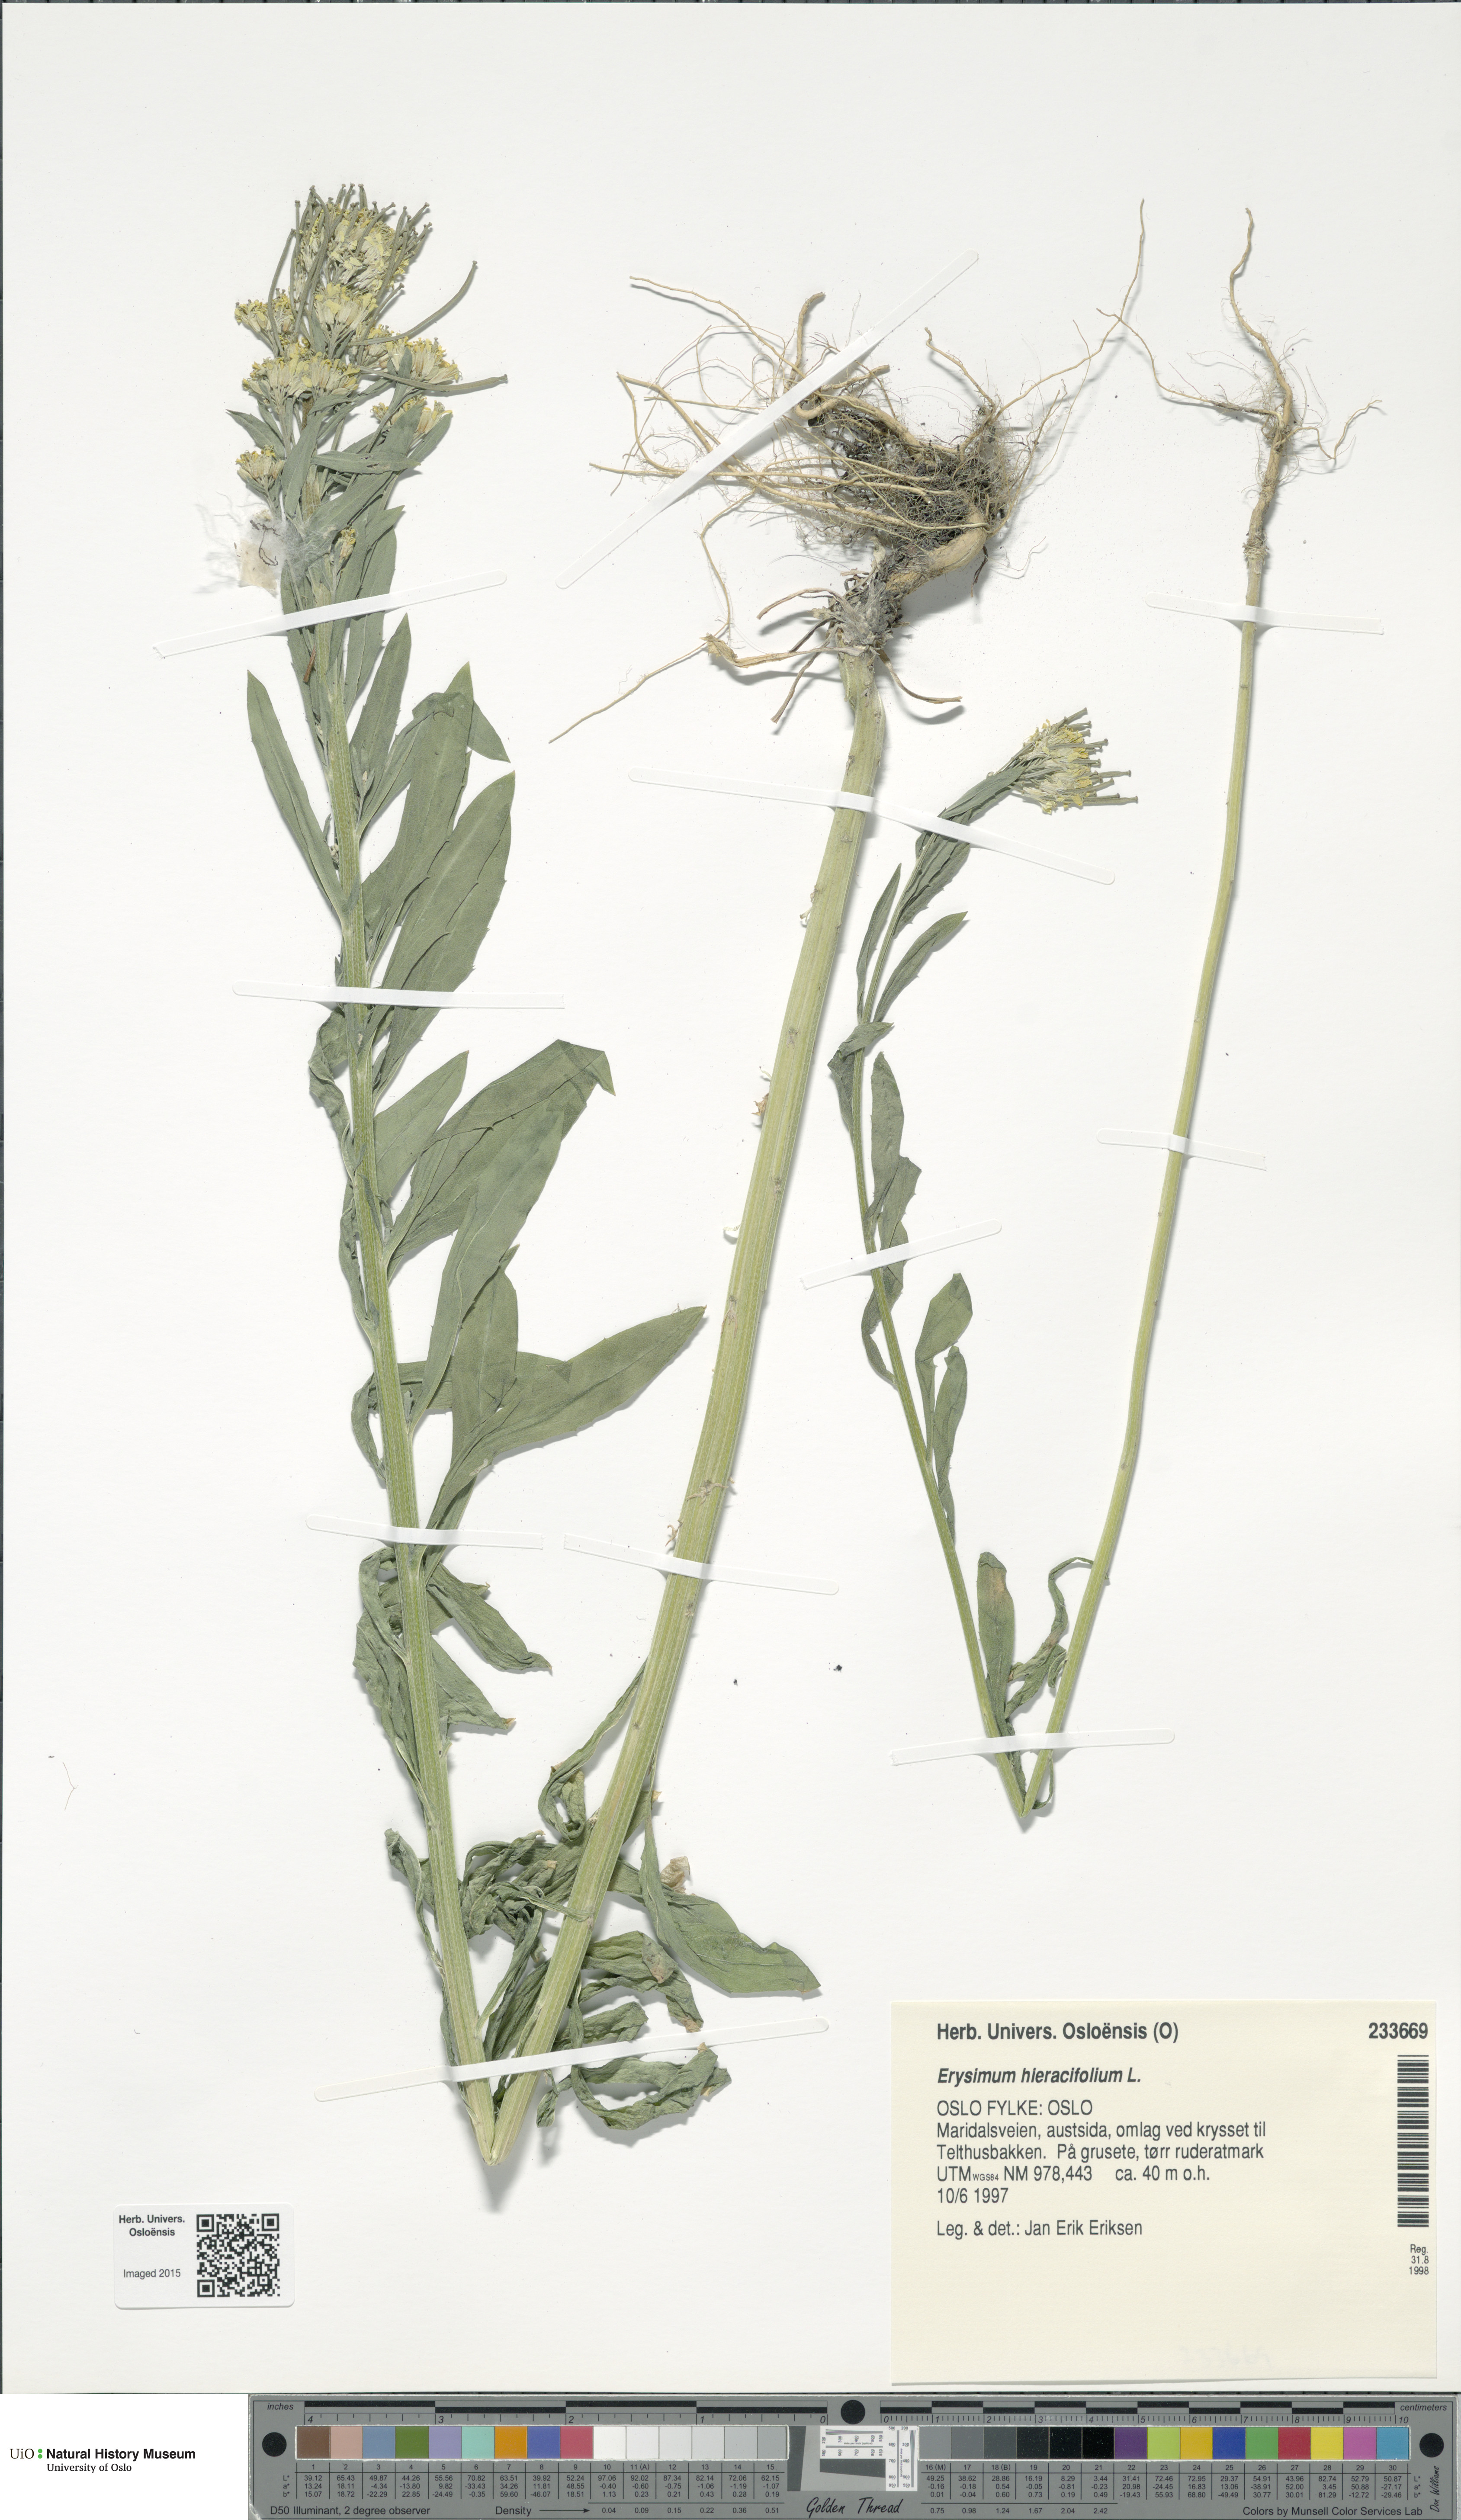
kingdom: Plantae
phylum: Tracheophyta
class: Magnoliopsida
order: Brassicales
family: Brassicaceae
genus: Erysimum
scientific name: Erysimum hieraciifolium
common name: European wallflower
